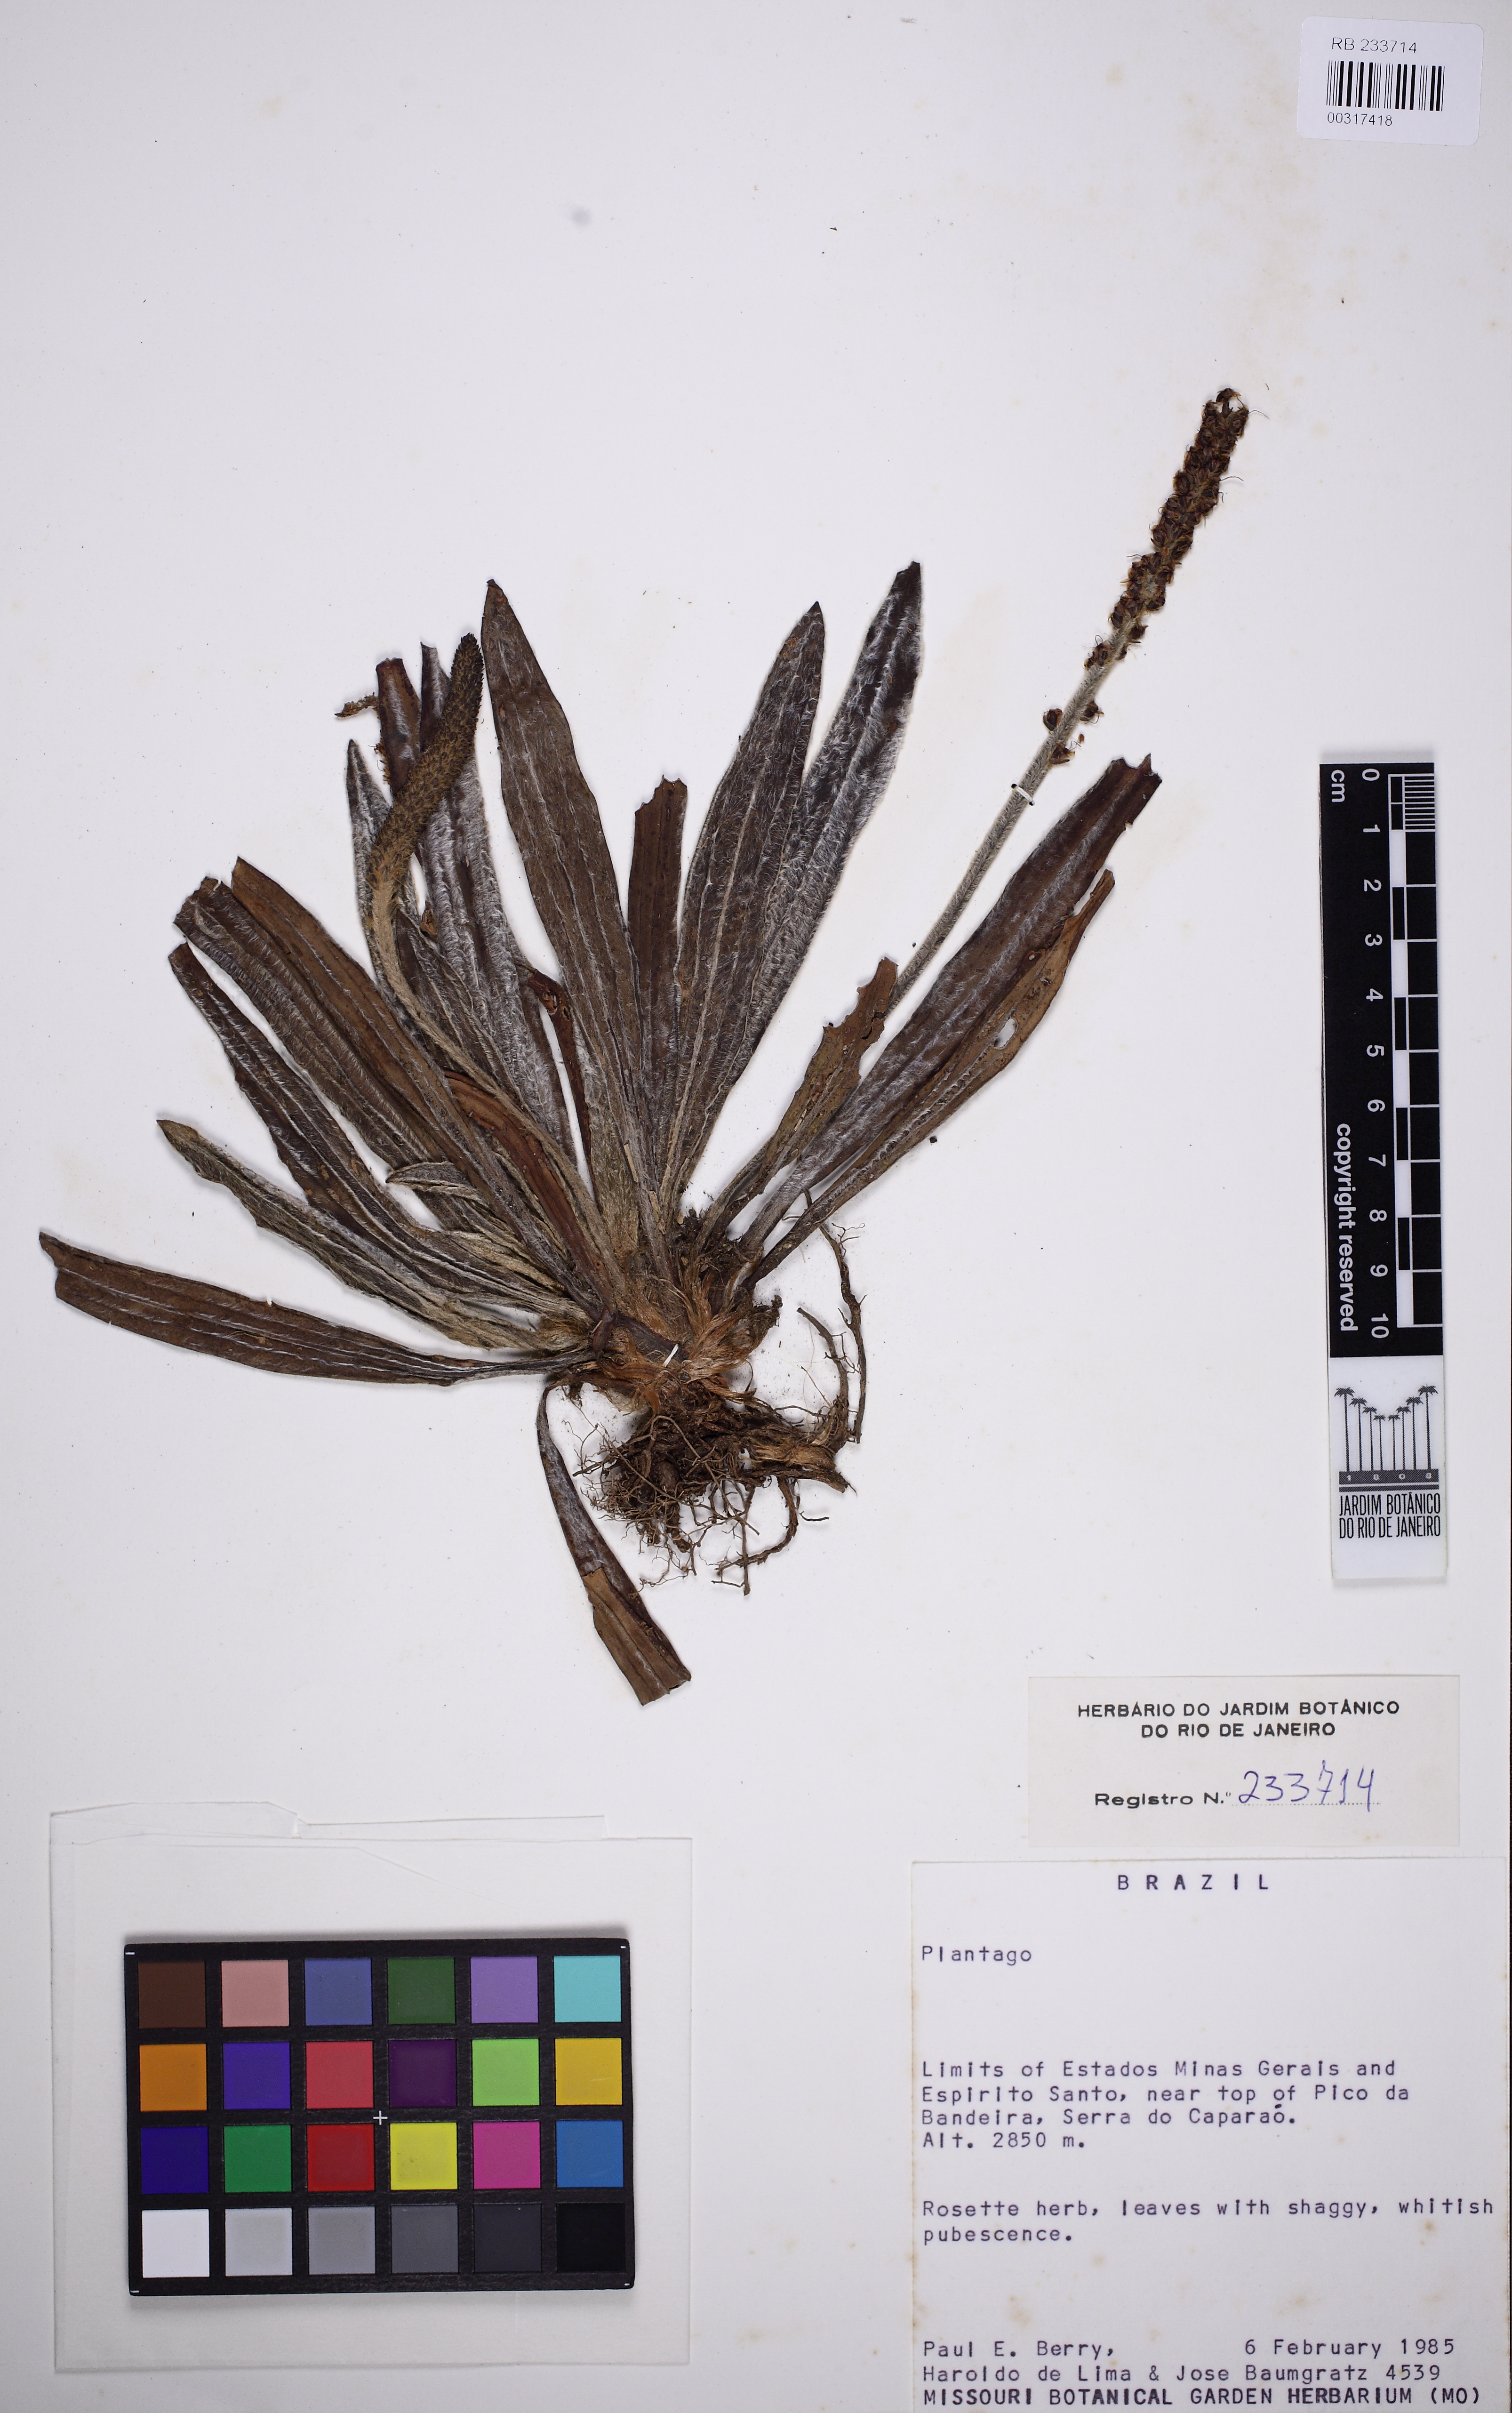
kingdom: Plantae
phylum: Tracheophyta
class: Magnoliopsida
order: Lamiales
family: Plantaginaceae
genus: Plantago
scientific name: Plantago
